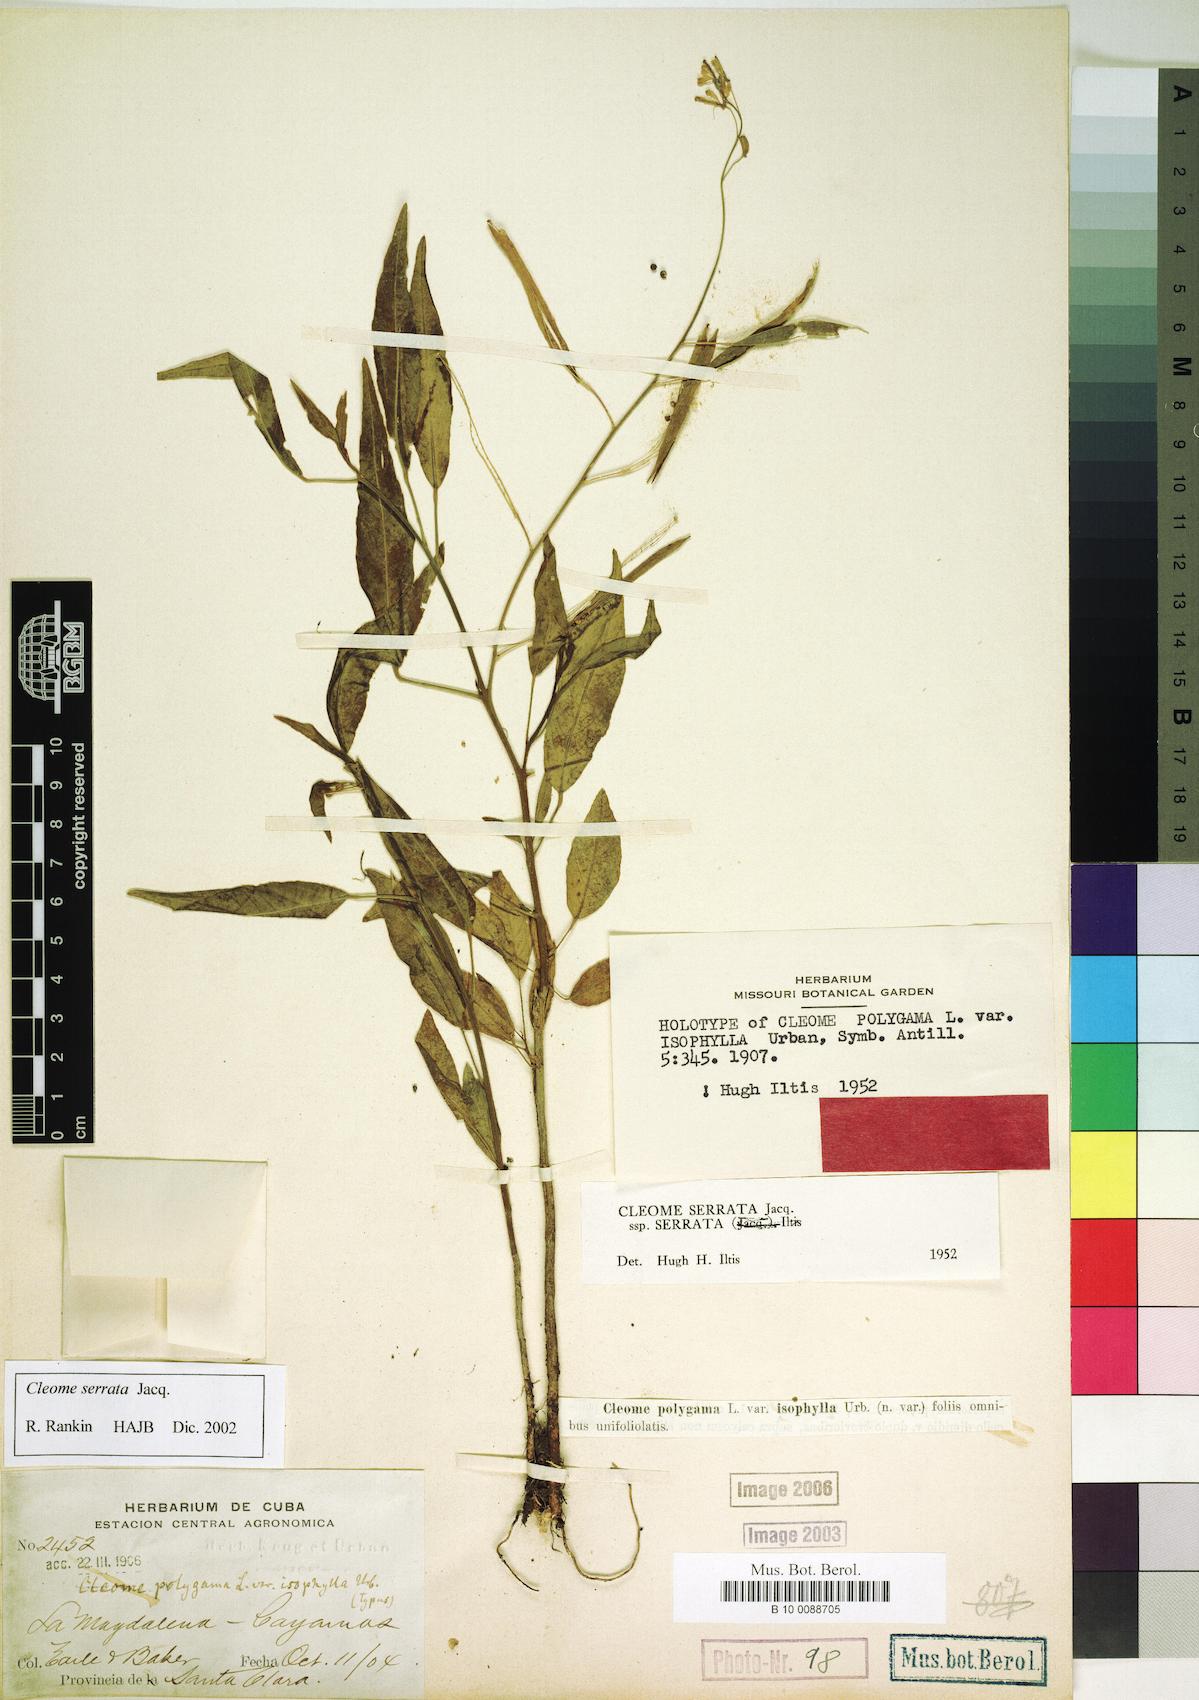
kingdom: Plantae
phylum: Tracheophyta
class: Magnoliopsida
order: Brassicales
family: Cleomaceae
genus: Cleoserrata
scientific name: Cleoserrata serrata
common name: Toothed spiderflower
